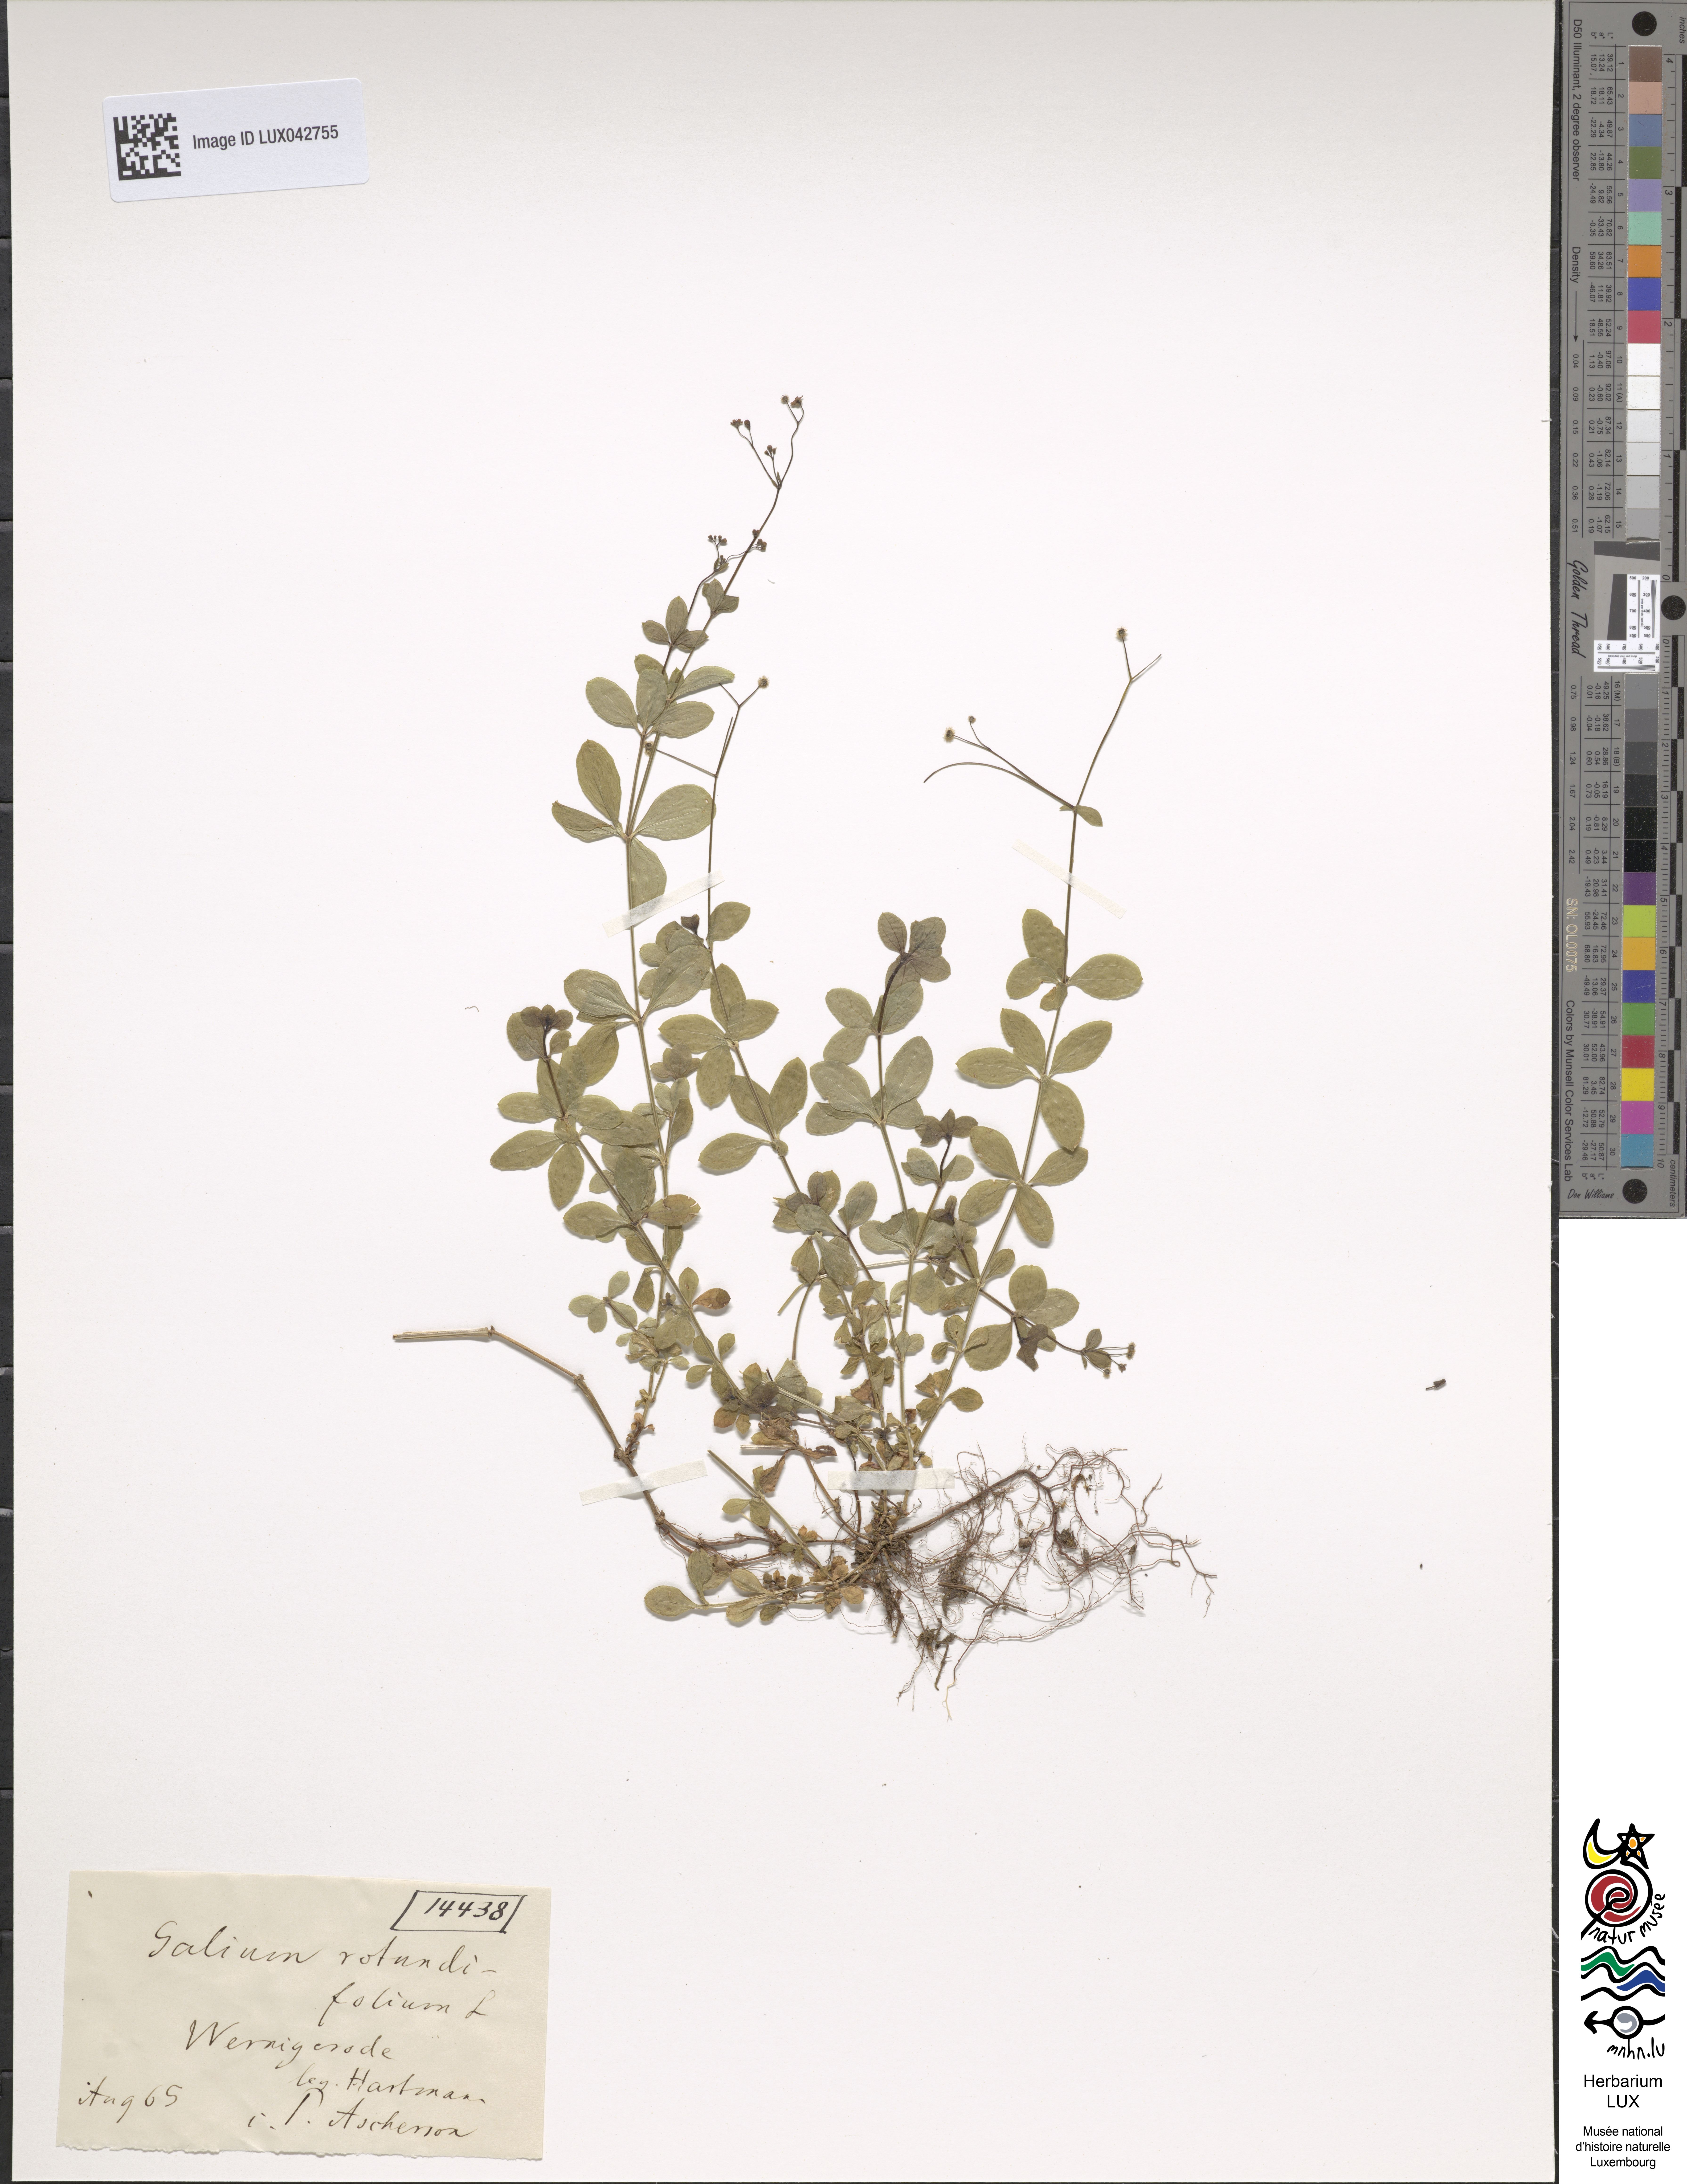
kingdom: Plantae
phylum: Tracheophyta
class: Magnoliopsida
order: Gentianales
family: Rubiaceae
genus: Galium
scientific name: Galium rotundifolium
